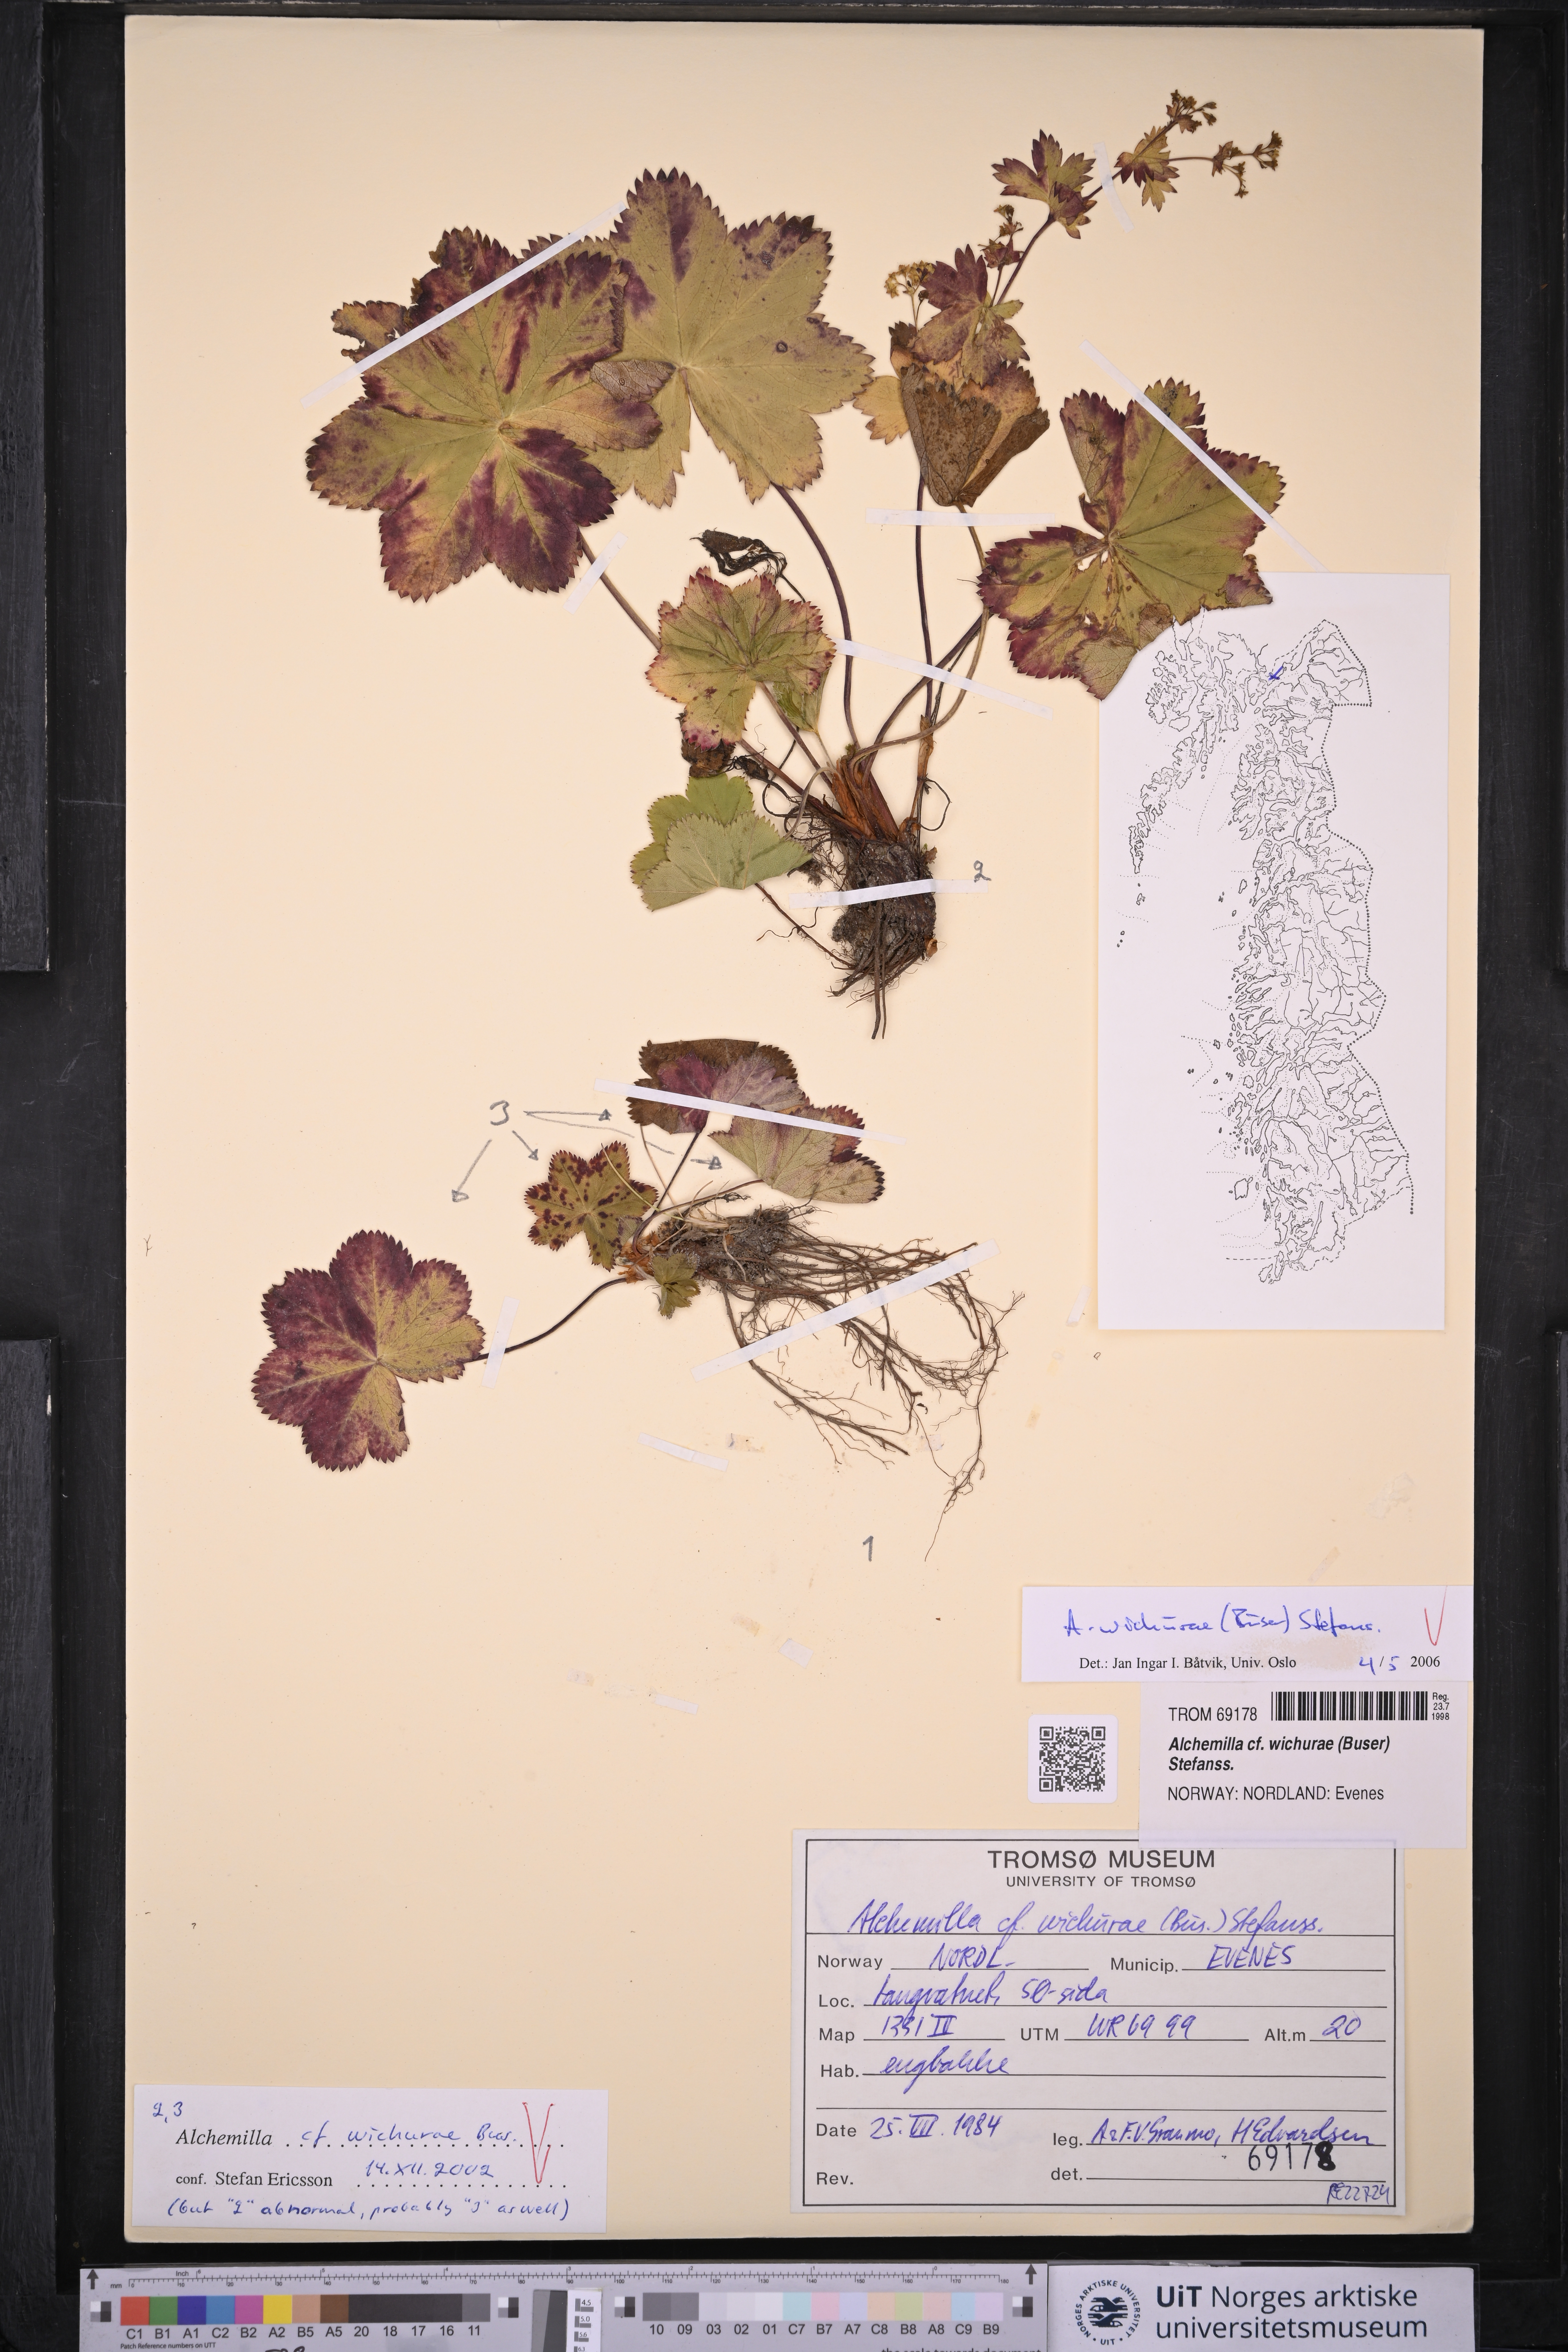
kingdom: Plantae
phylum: Tracheophyta
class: Magnoliopsida
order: Rosales
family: Rosaceae
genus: Alchemilla
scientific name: Alchemilla wichurae
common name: Rock lady's mantle
